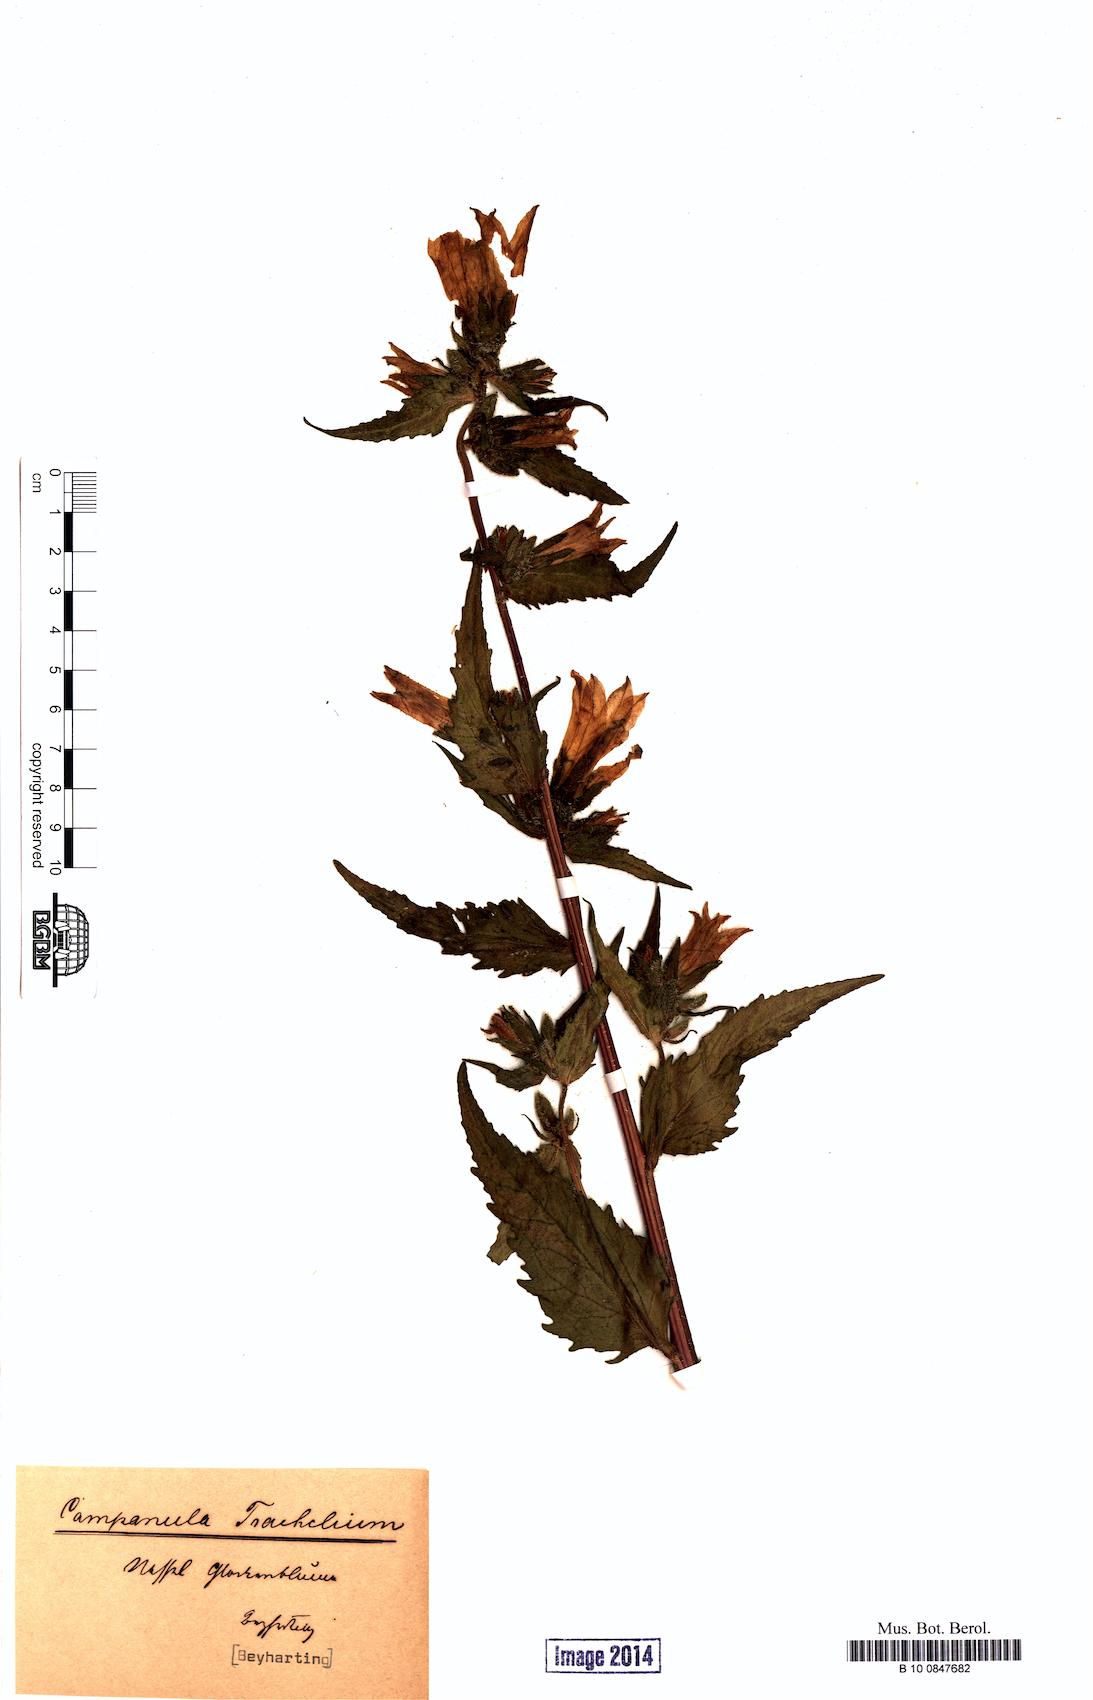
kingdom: Plantae
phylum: Tracheophyta
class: Magnoliopsida
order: Asterales
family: Campanulaceae
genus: Campanula
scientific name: Campanula trachelium
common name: Nettle-leaved bellflower
